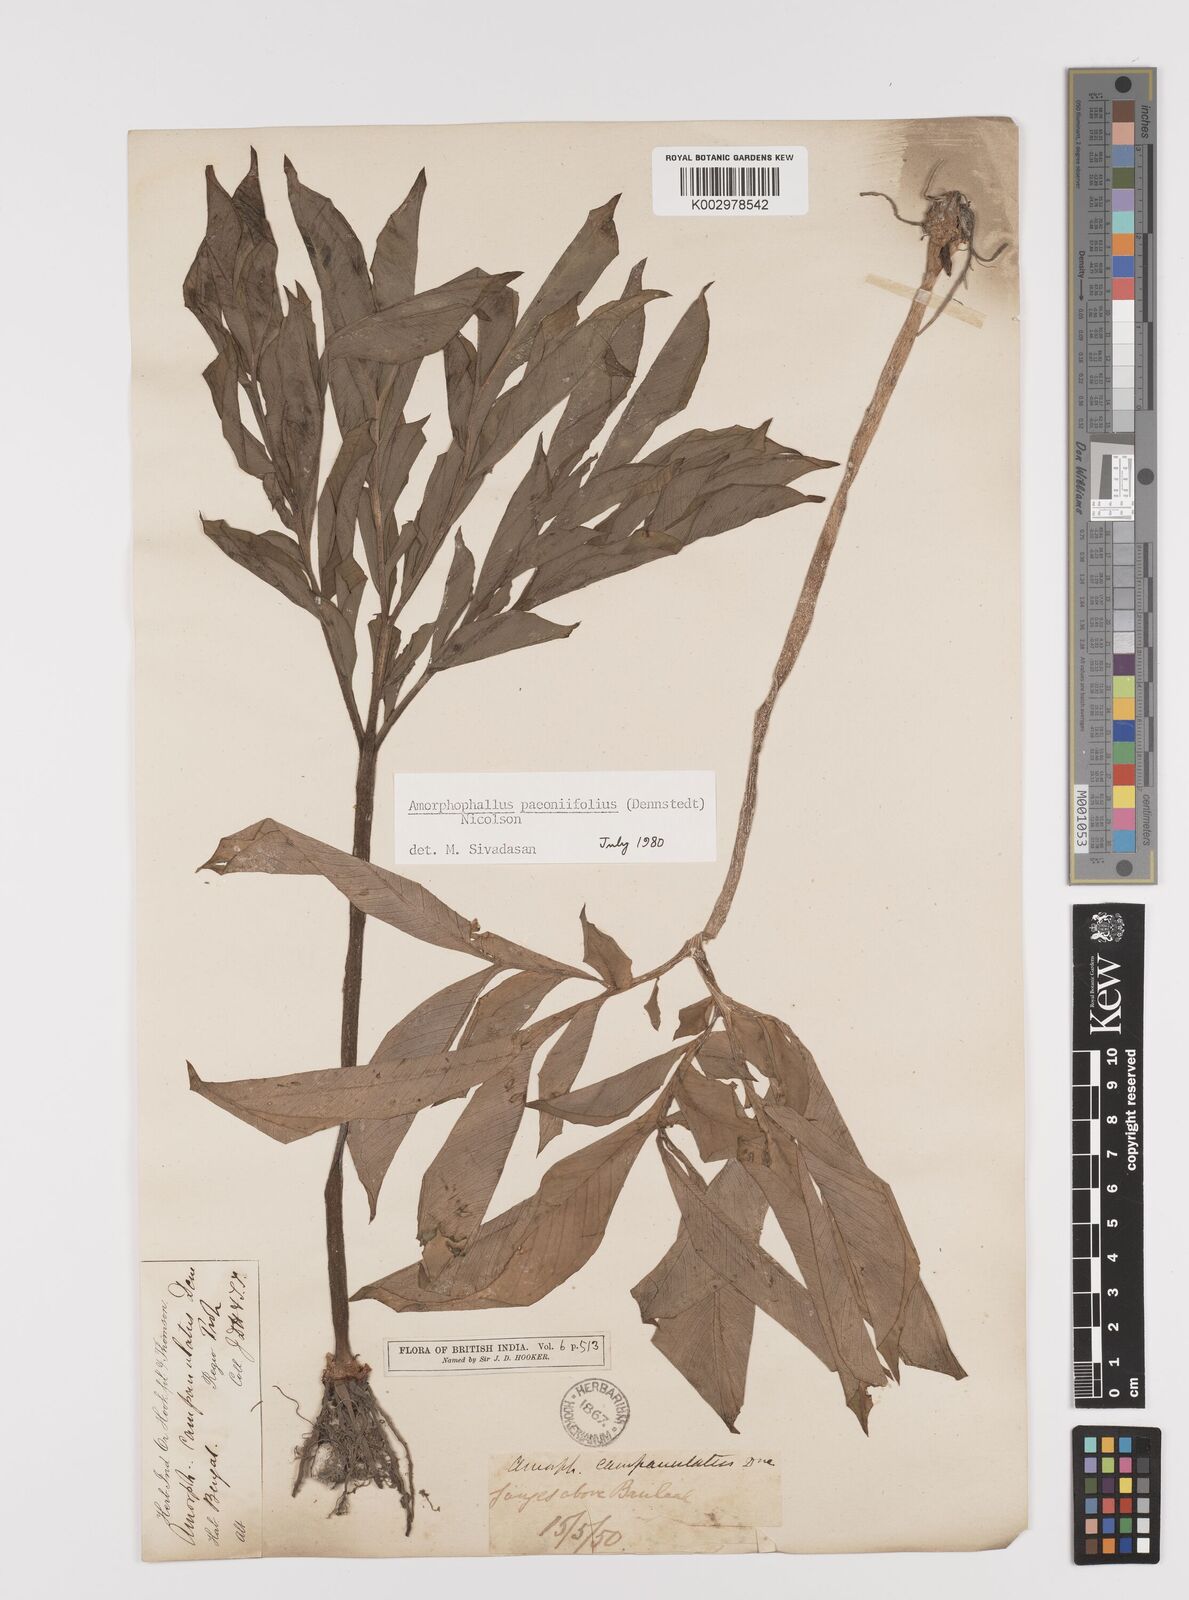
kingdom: Plantae
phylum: Tracheophyta
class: Liliopsida
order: Alismatales
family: Araceae
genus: Amorphophallus
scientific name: Amorphophallus paeoniifolius
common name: Telinga-potato
